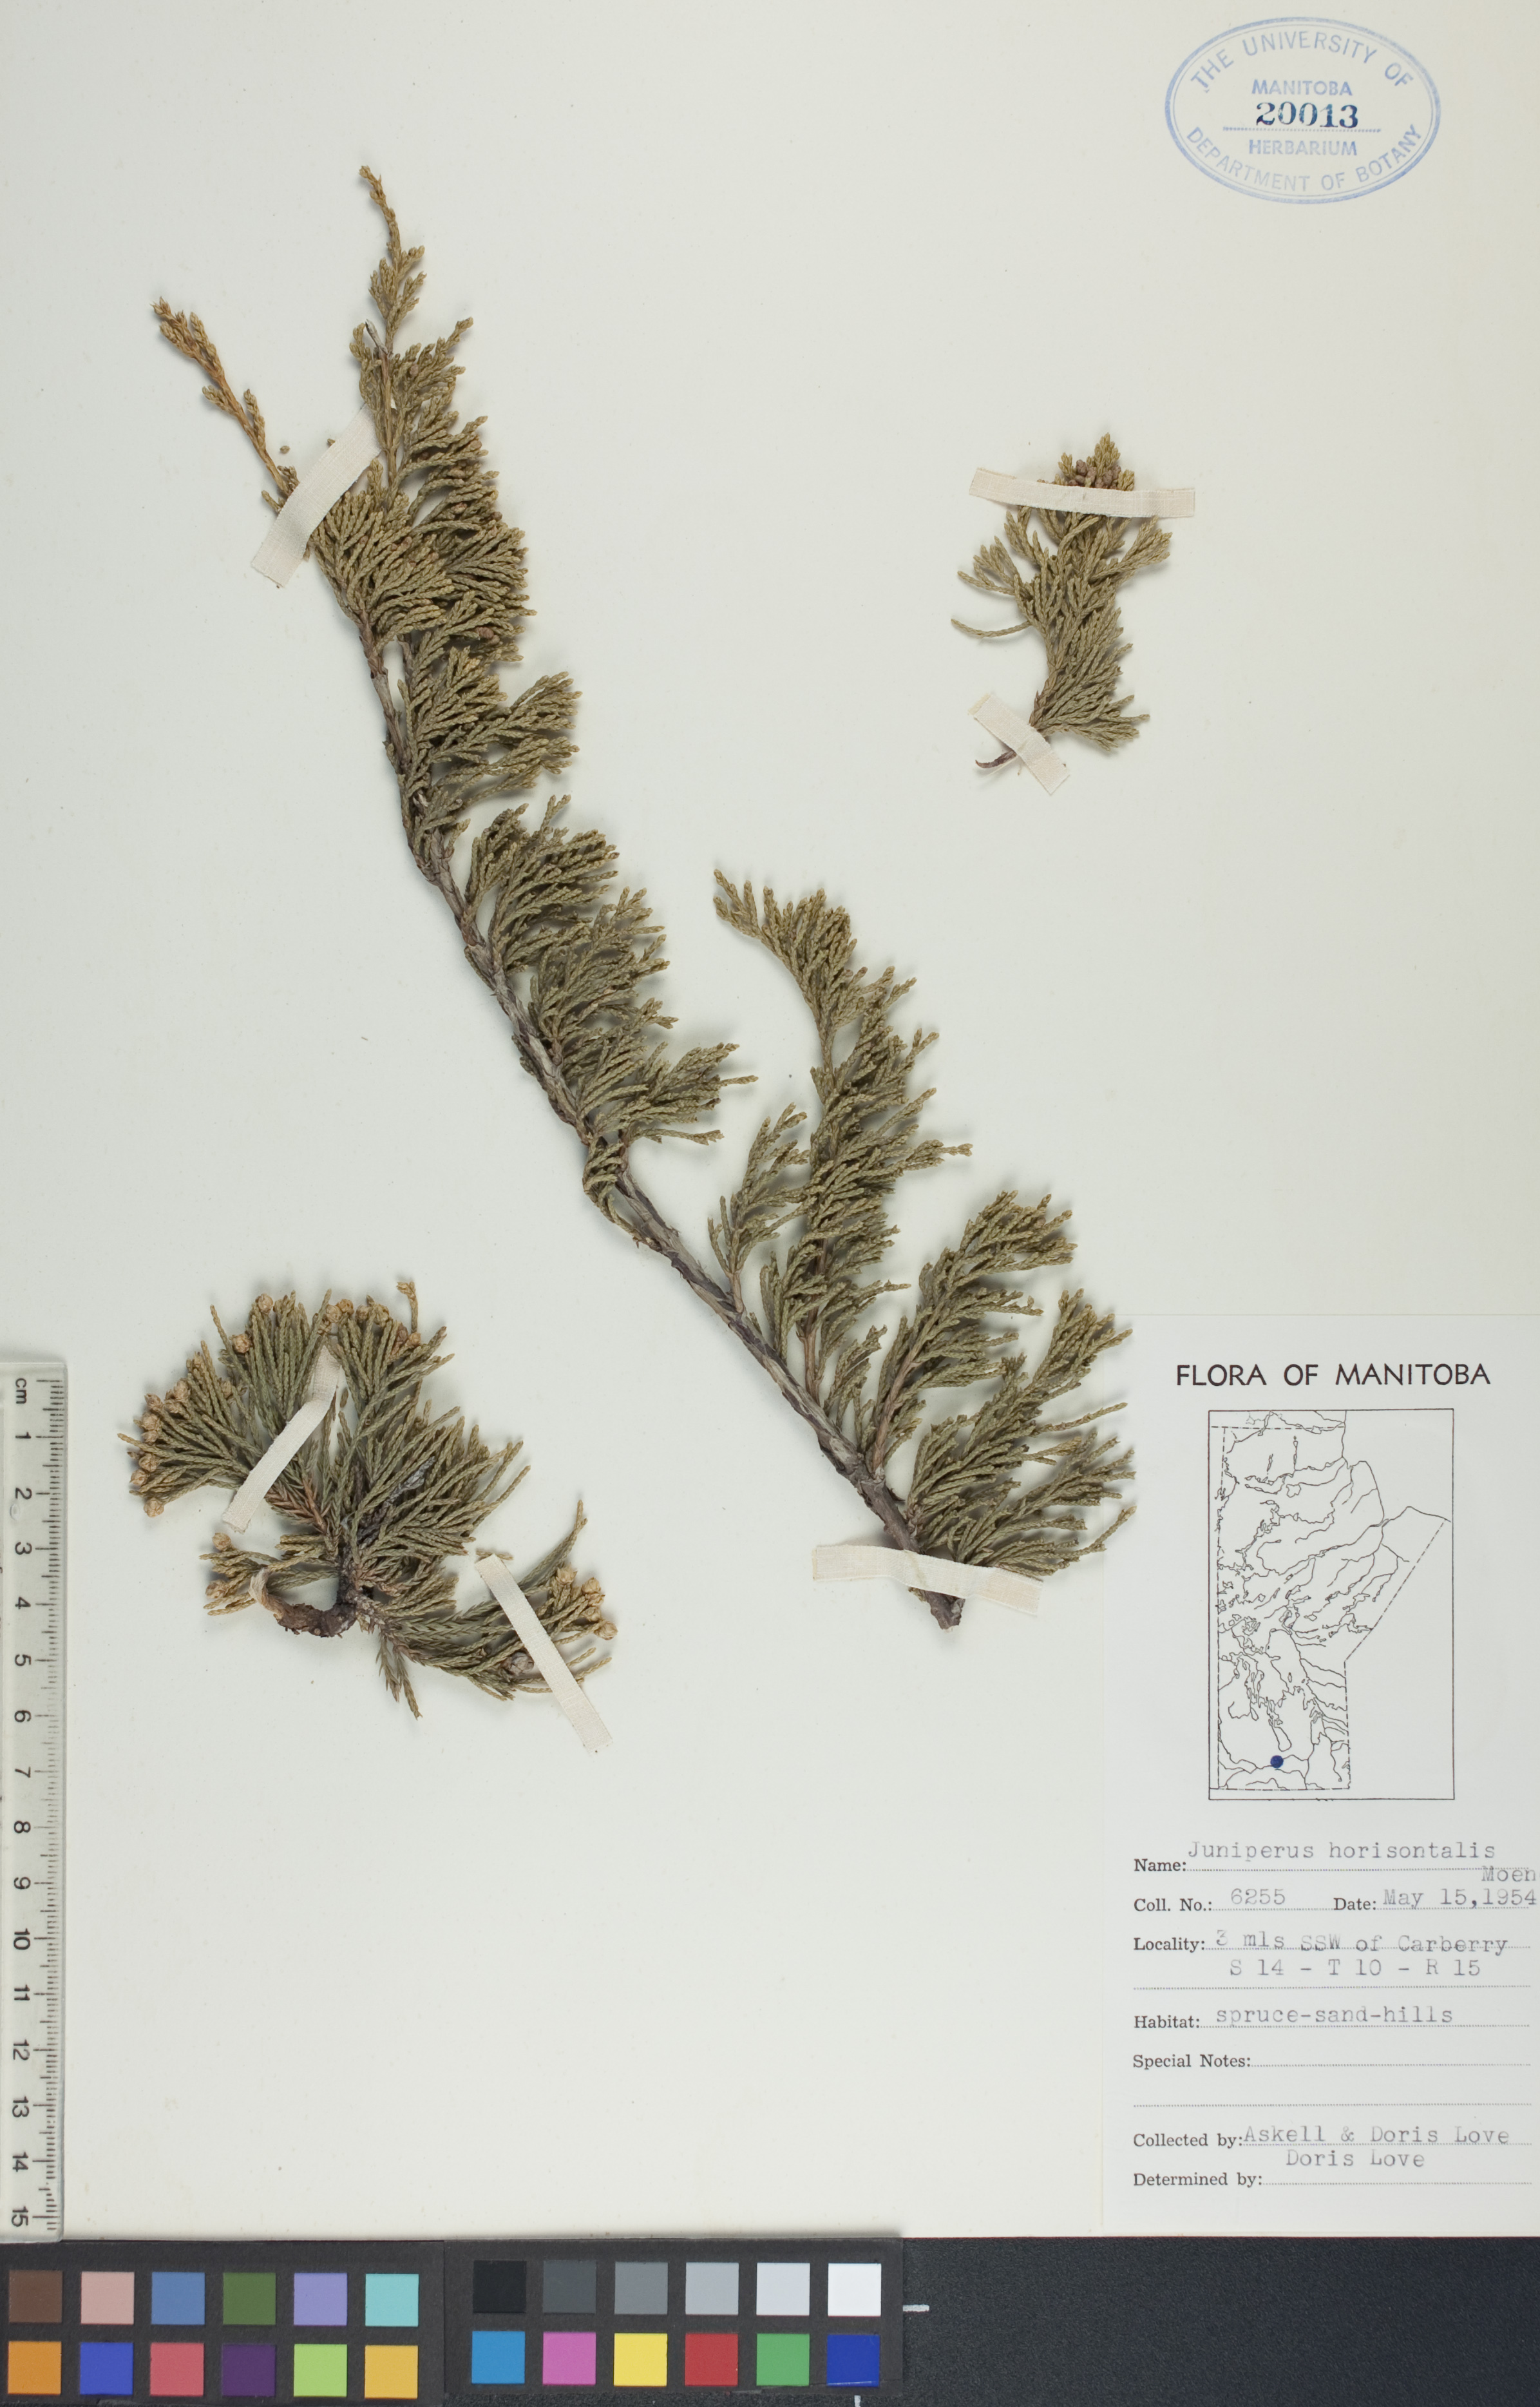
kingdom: Plantae
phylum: Tracheophyta
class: Pinopsida
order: Pinales
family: Cupressaceae
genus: Juniperus
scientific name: Juniperus horizontalis
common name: Creeping juniper
